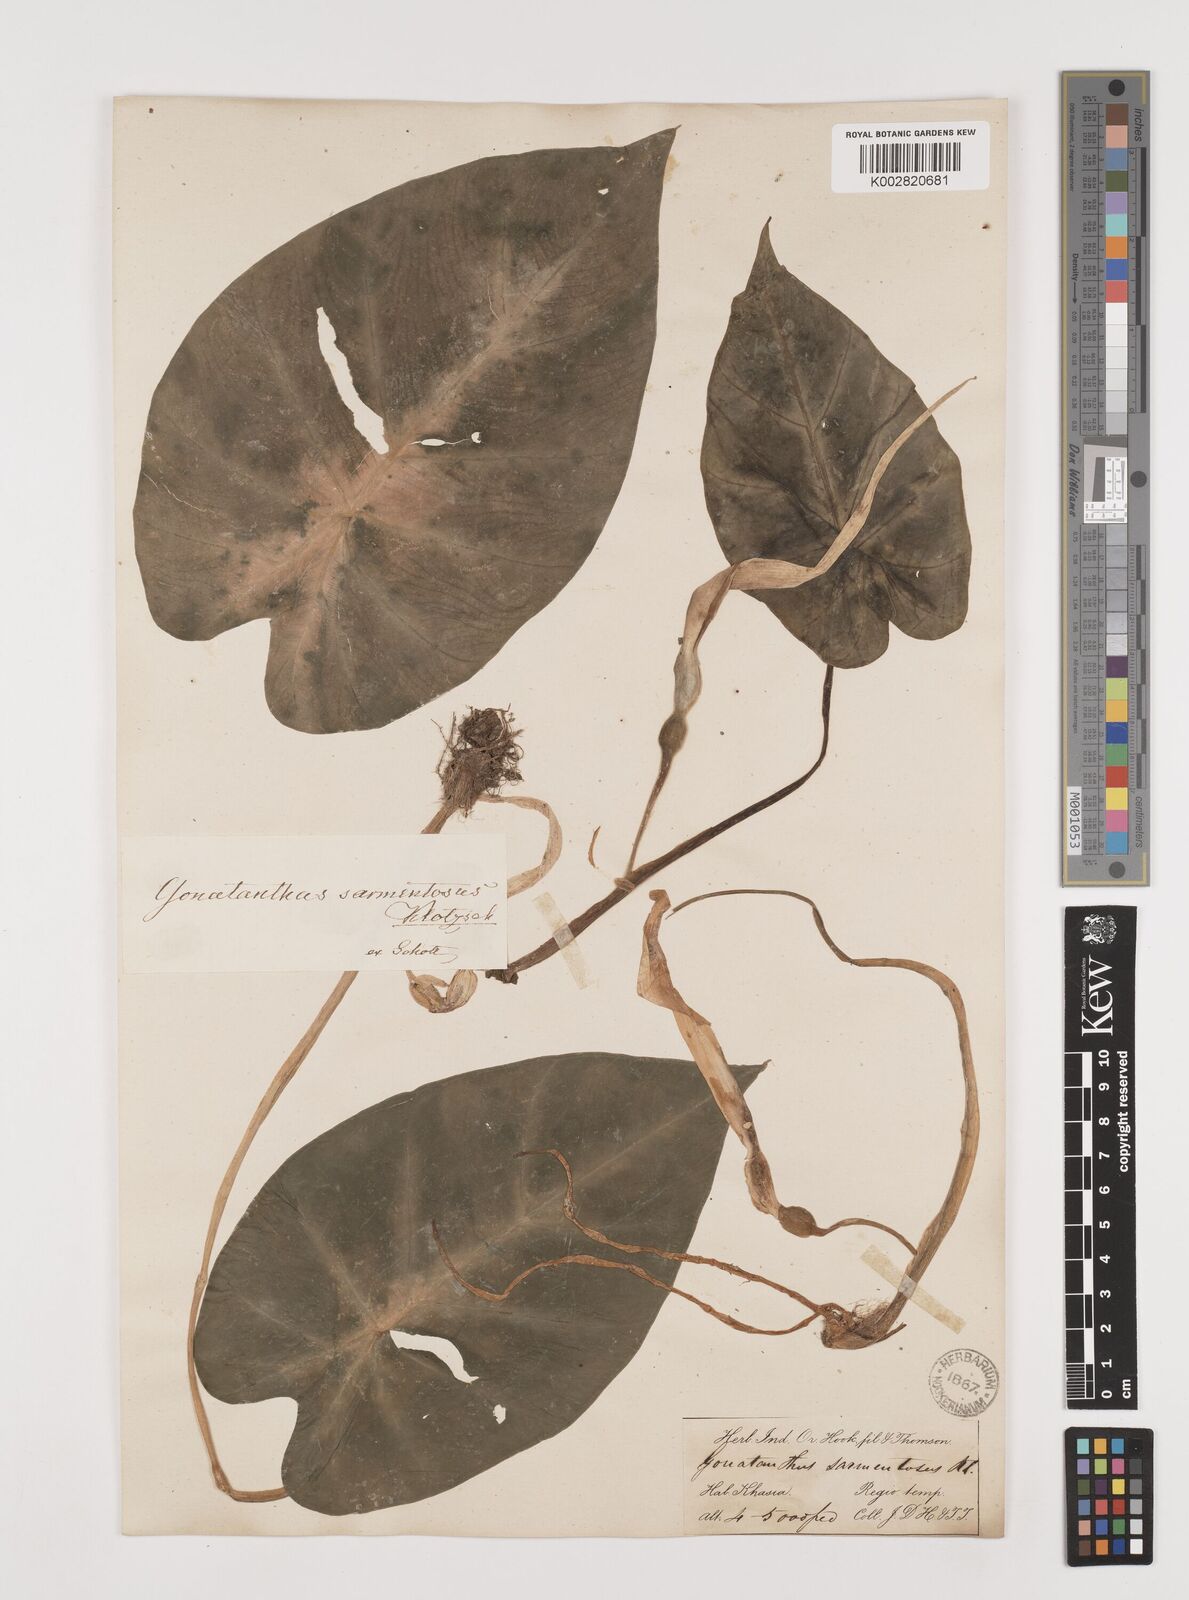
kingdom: Plantae
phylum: Tracheophyta
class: Liliopsida
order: Alismatales
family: Araceae
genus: Remusatia
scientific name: Remusatia pumila
